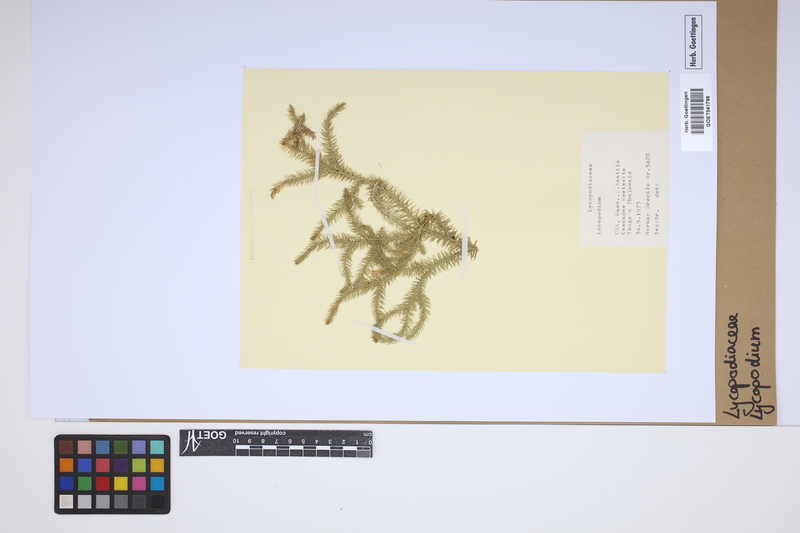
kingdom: Plantae
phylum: Tracheophyta
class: Lycopodiopsida
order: Lycopodiales
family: Lycopodiaceae
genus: Lycopodium
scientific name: Lycopodium
